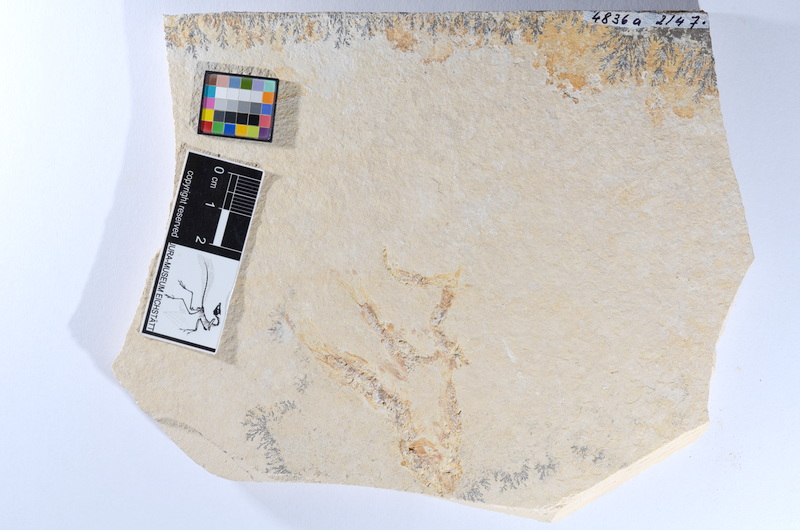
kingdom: Animalia
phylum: Chordata
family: Ascalaboidae
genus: Tharsis
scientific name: Tharsis dubius
